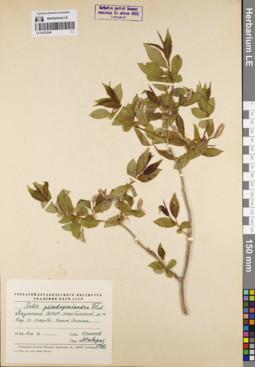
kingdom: Plantae
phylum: Tracheophyta
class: Magnoliopsida
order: Malpighiales
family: Salicaceae
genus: Salix
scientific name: Salix pseudopentandra
